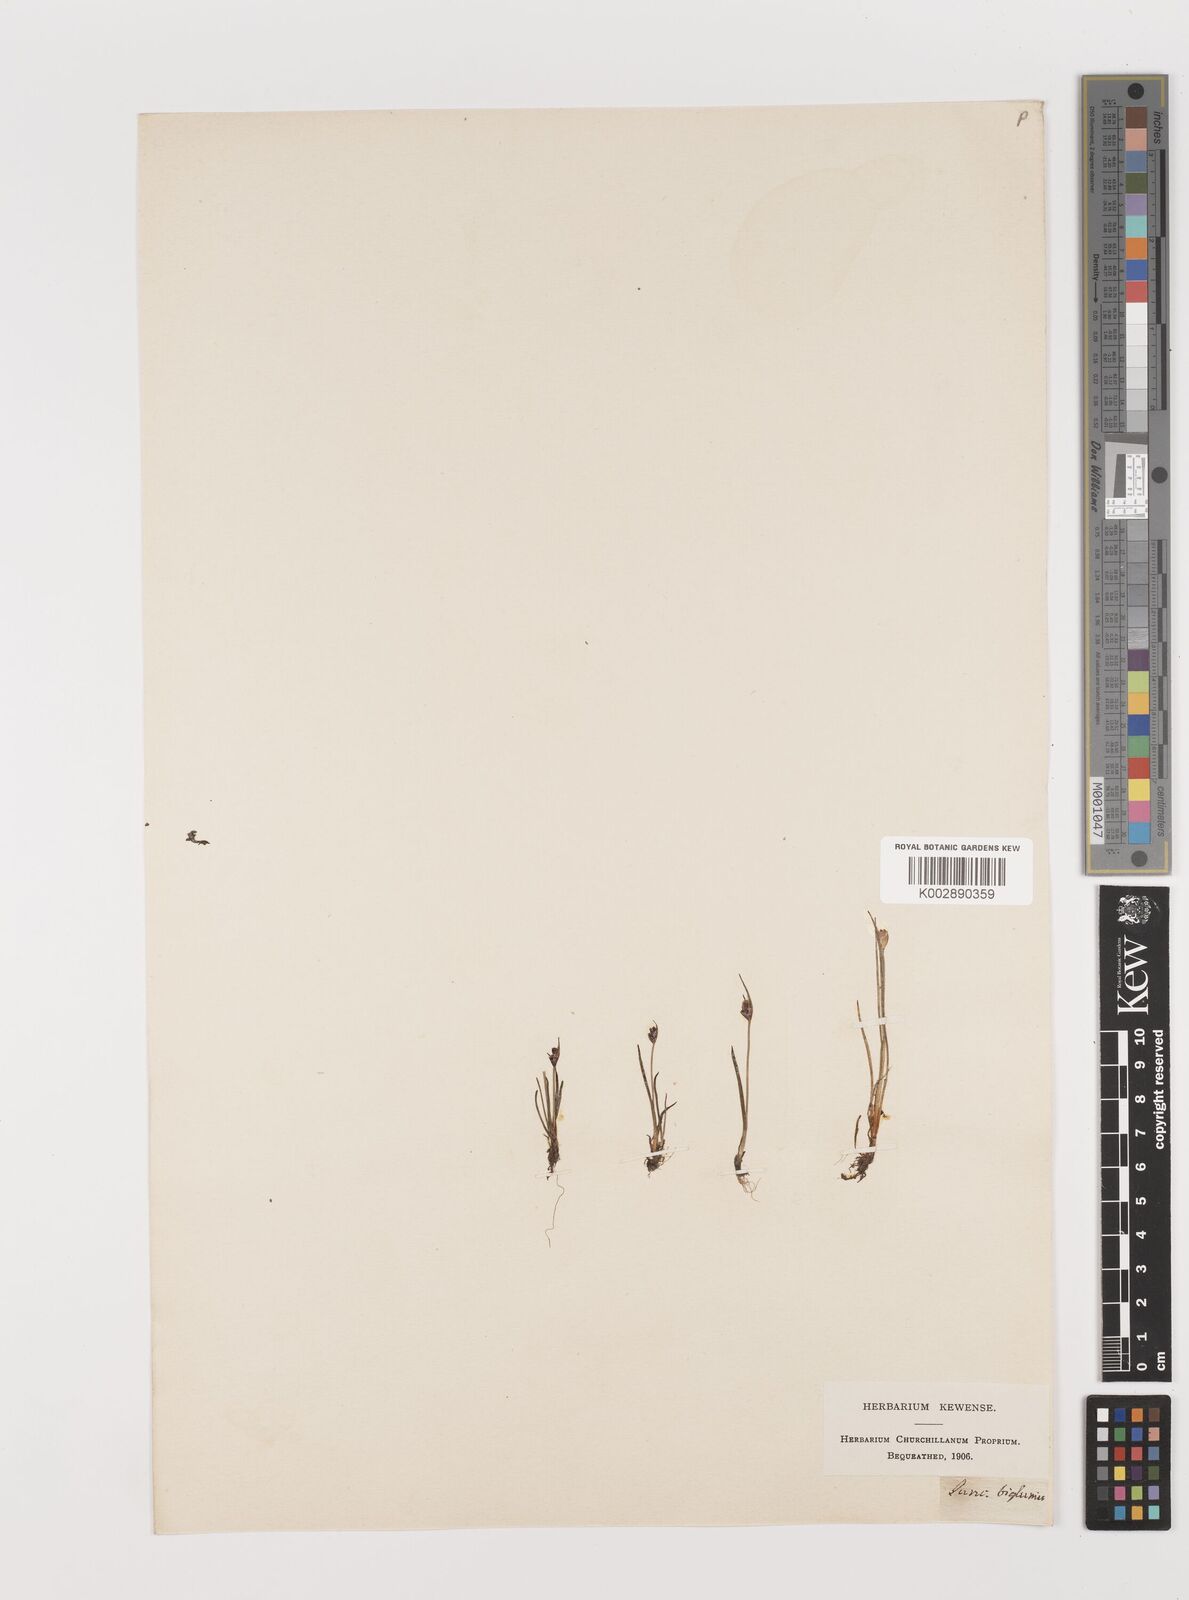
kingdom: Plantae
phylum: Tracheophyta
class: Liliopsida
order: Poales
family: Juncaceae
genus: Juncus
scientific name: Juncus biglumis
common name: Two-flowered rush
